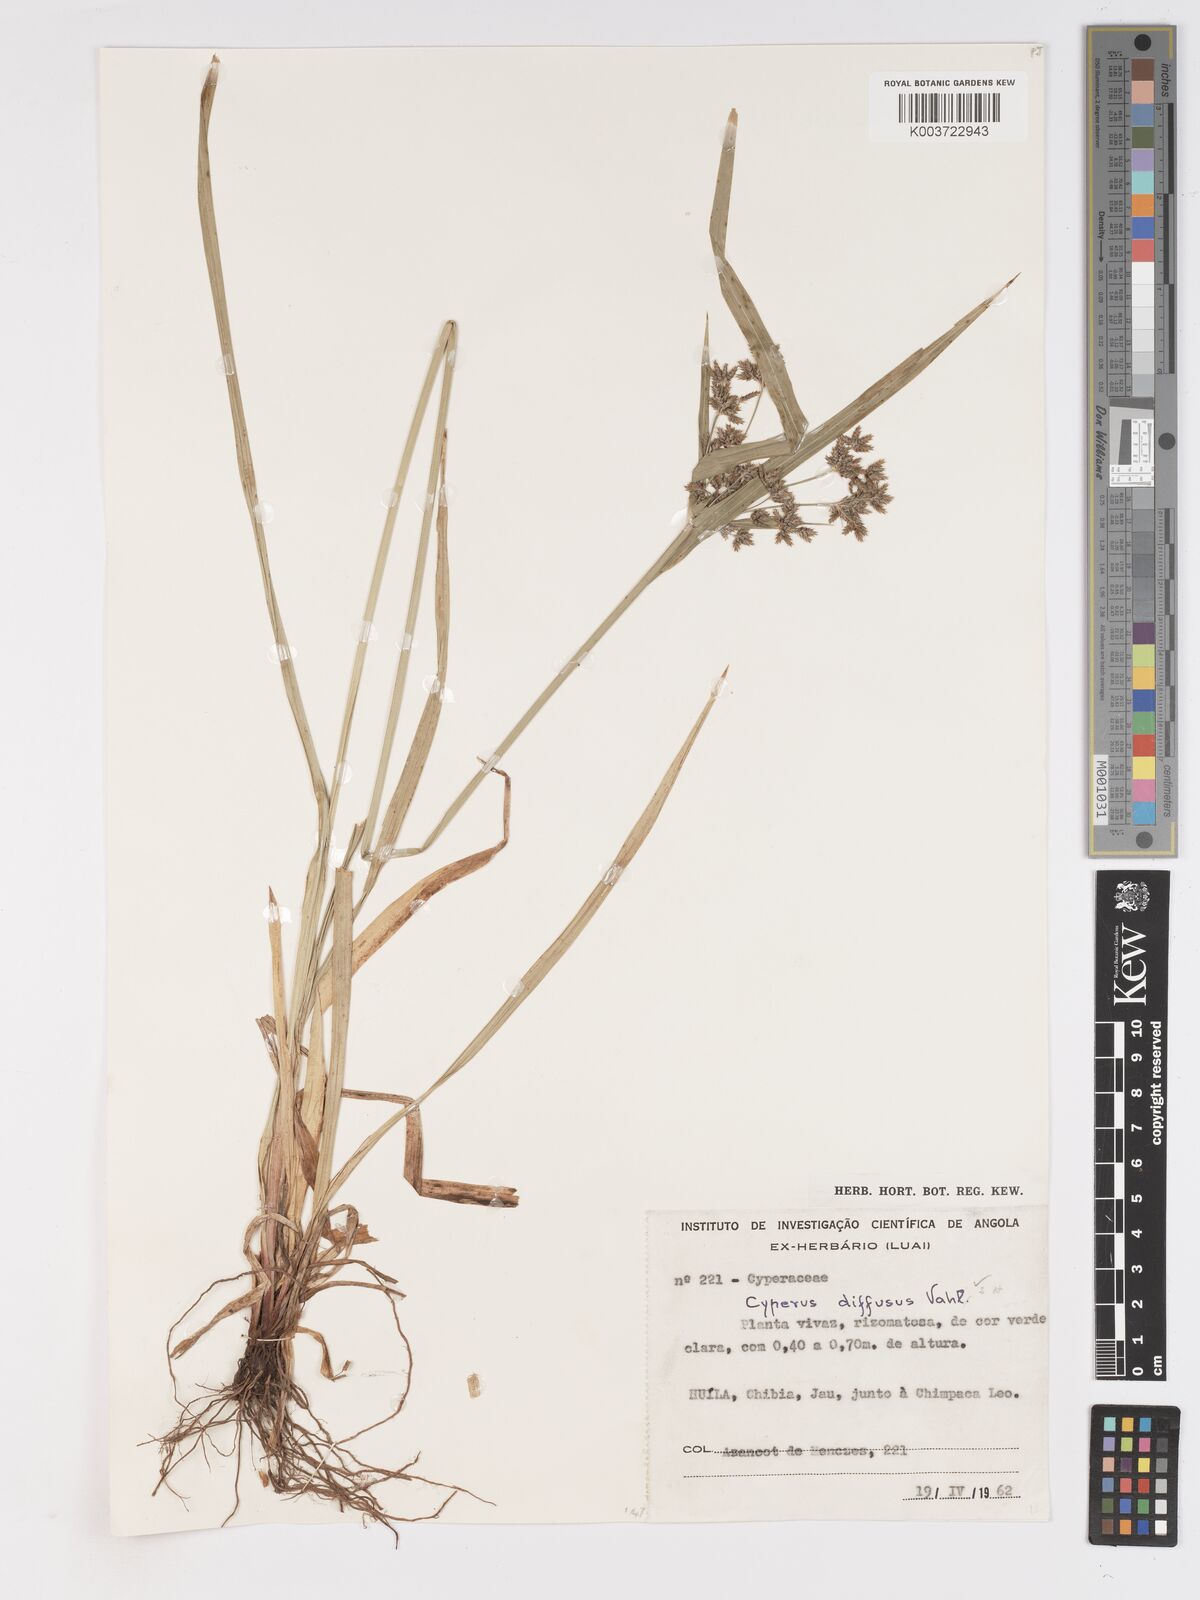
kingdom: Plantae
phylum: Tracheophyta
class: Liliopsida
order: Poales
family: Cyperaceae
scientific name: Cyperaceae
